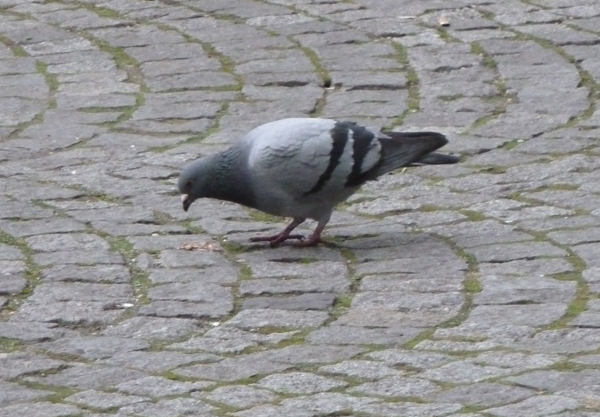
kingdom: Animalia
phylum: Chordata
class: Aves
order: Columbiformes
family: Columbidae
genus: Columba
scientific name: Columba livia
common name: Rock pigeon
